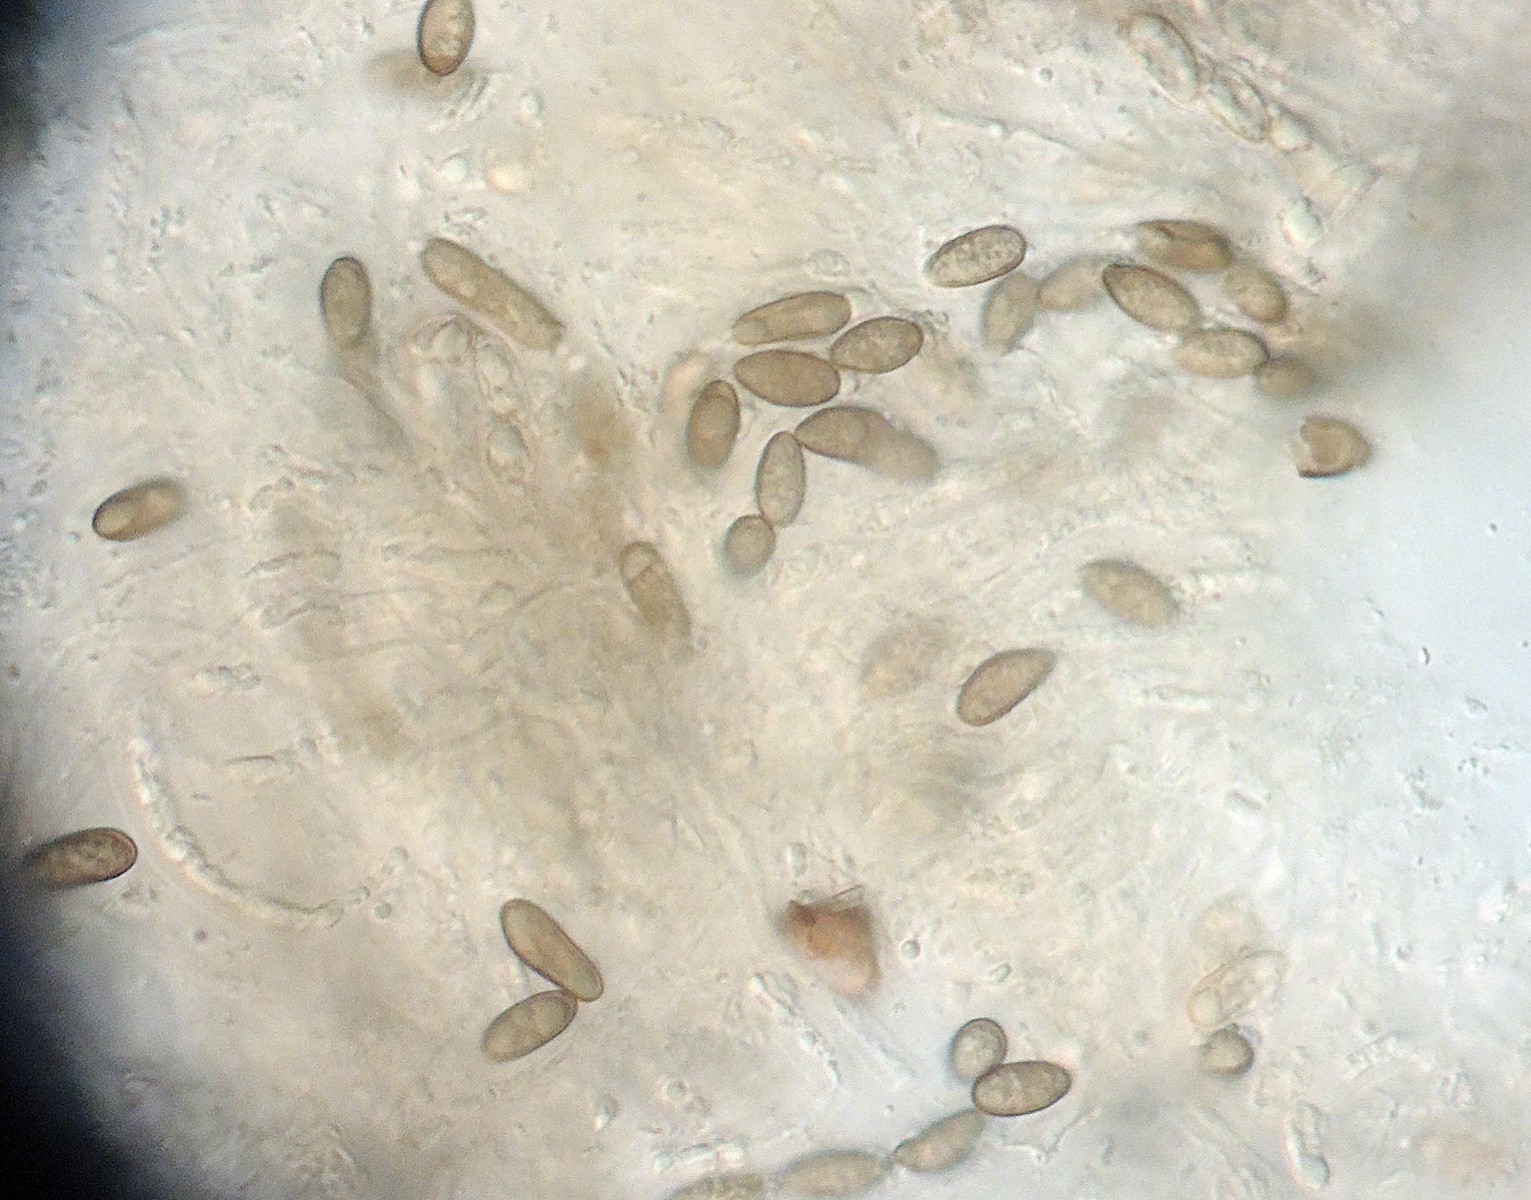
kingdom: Fungi
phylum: Ascomycota
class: Sordariomycetes
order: Sordariales
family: Helminthosphaeriaceae
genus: Helminthosphaeria
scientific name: Helminthosphaeria hyphodermae
